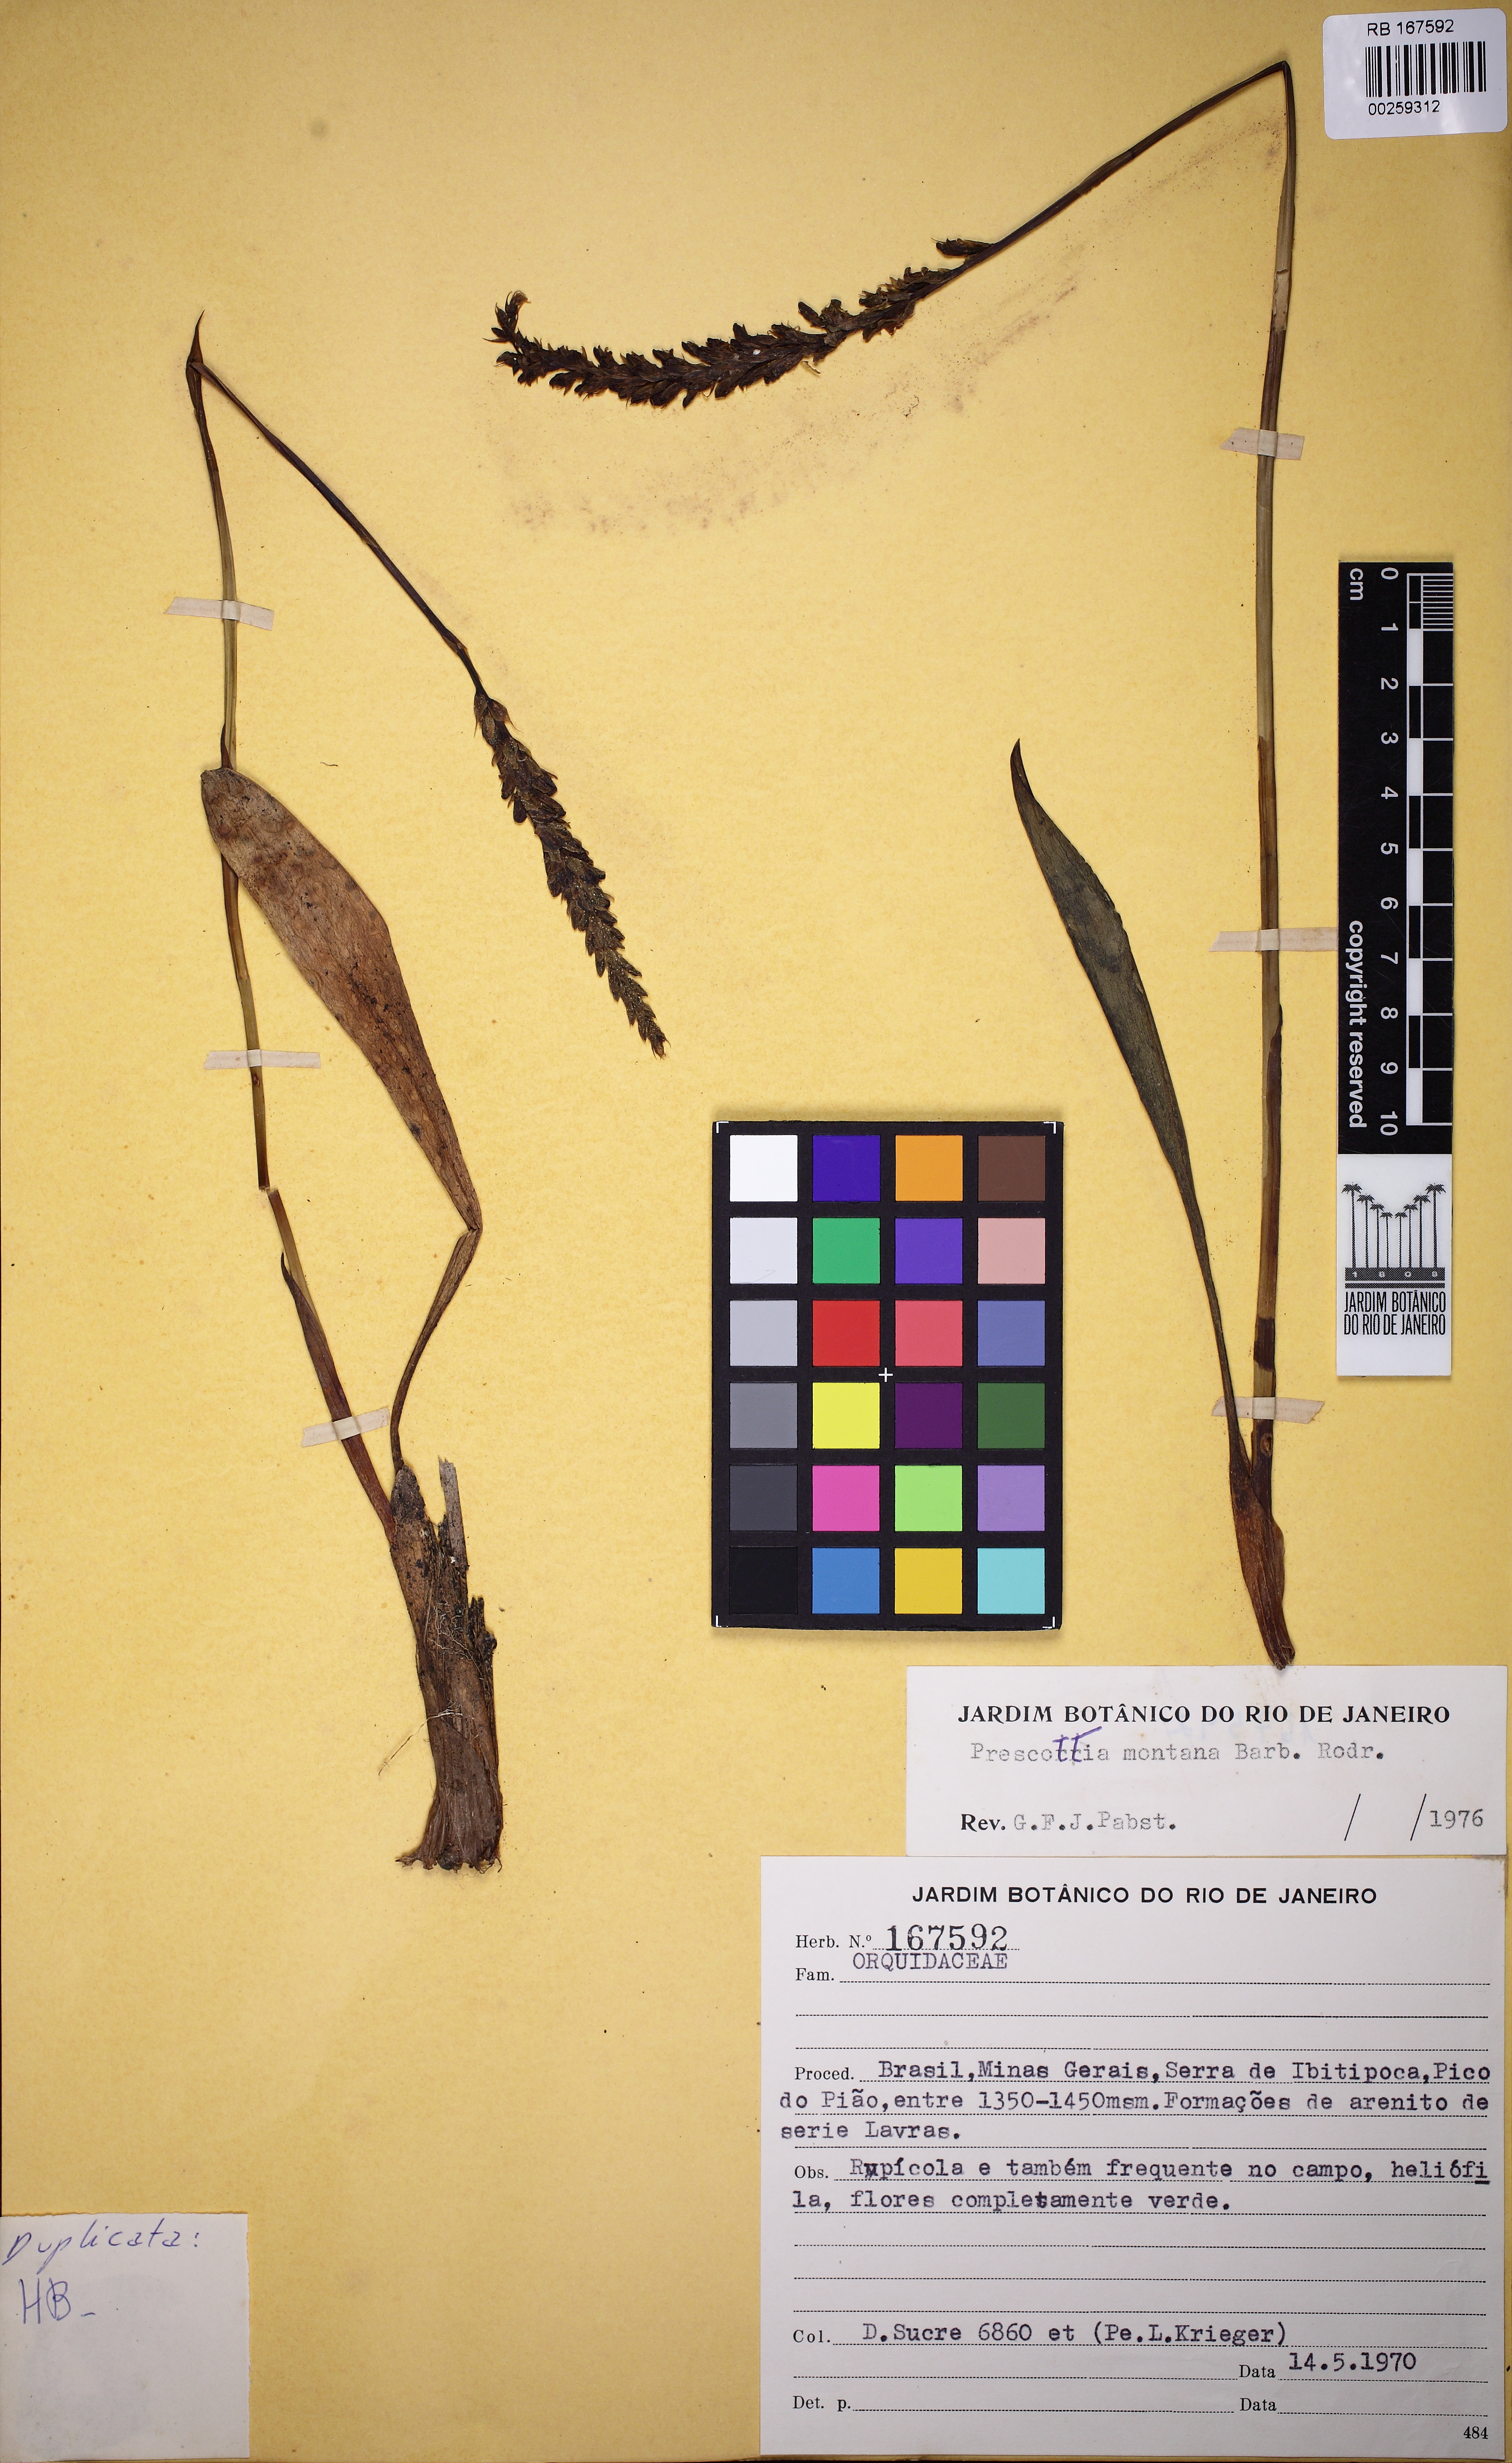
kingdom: Plantae
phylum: Tracheophyta
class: Liliopsida
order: Asparagales
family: Orchidaceae
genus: Prescottia
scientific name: Prescottia montana
